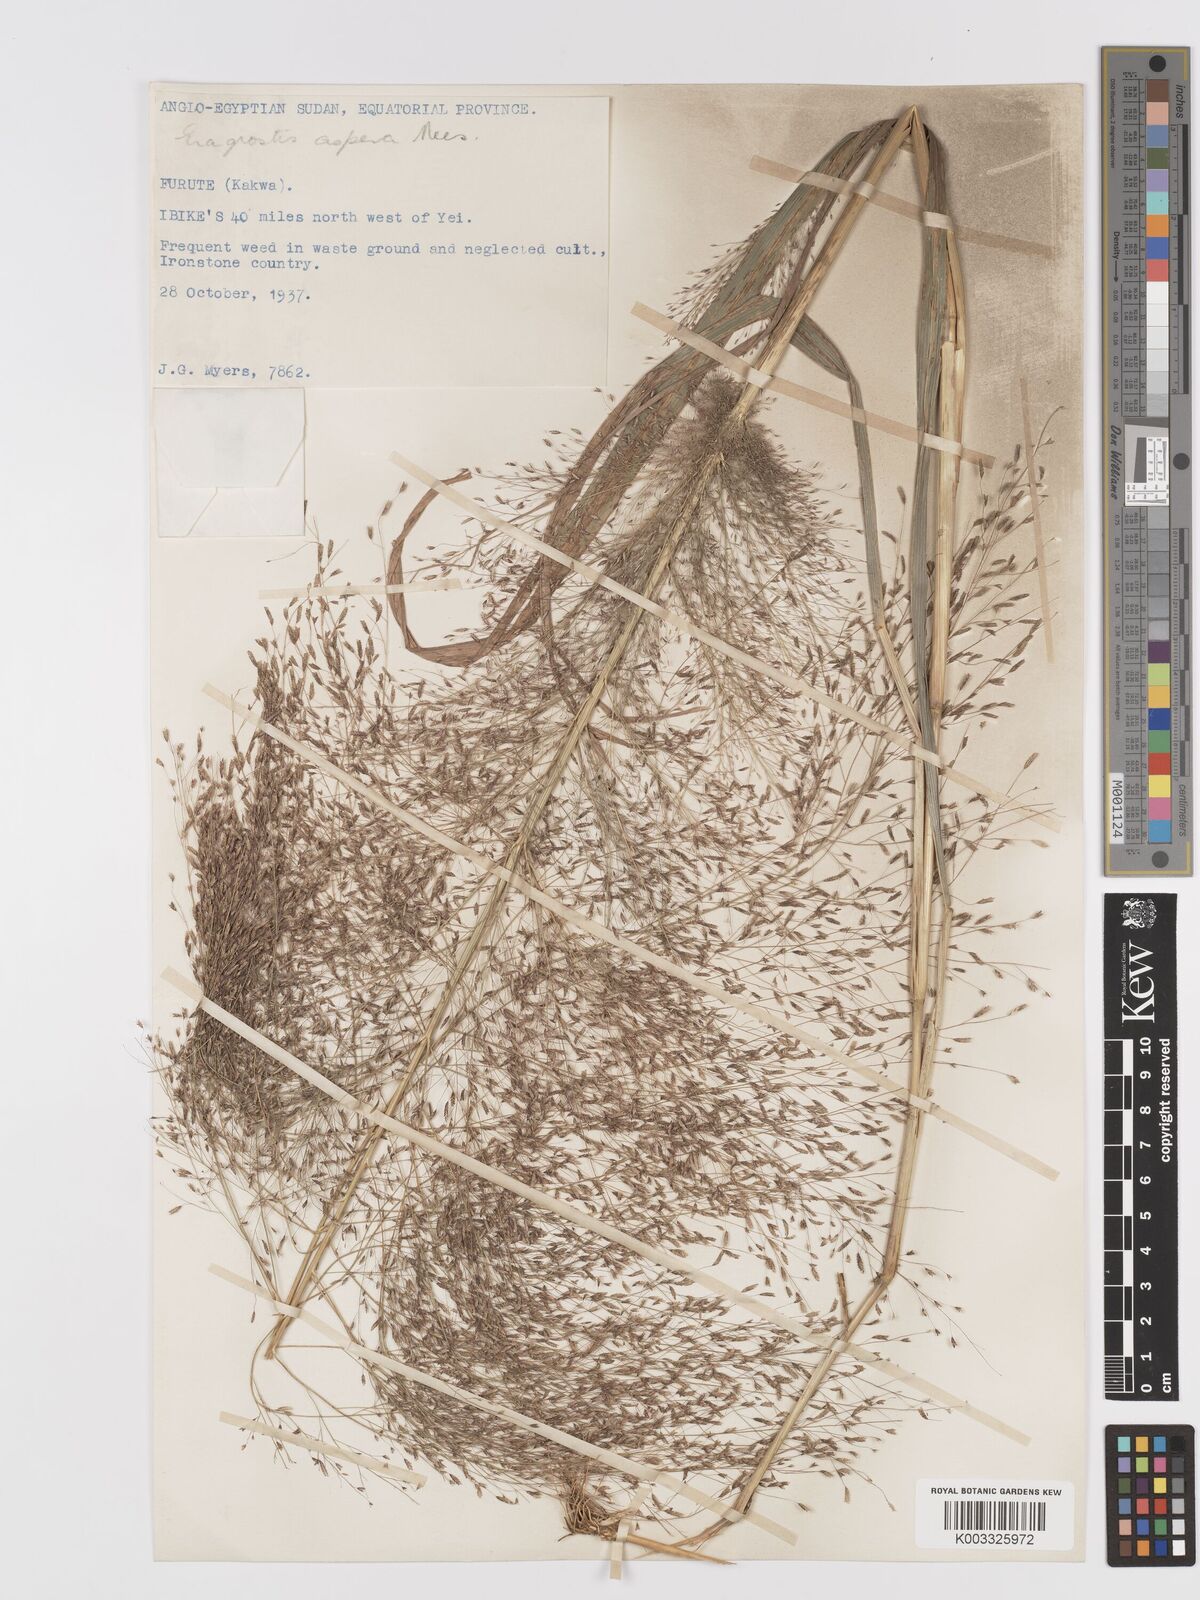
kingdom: Plantae
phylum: Tracheophyta
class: Liliopsida
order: Poales
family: Poaceae
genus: Eragrostis
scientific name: Eragrostis aspera
